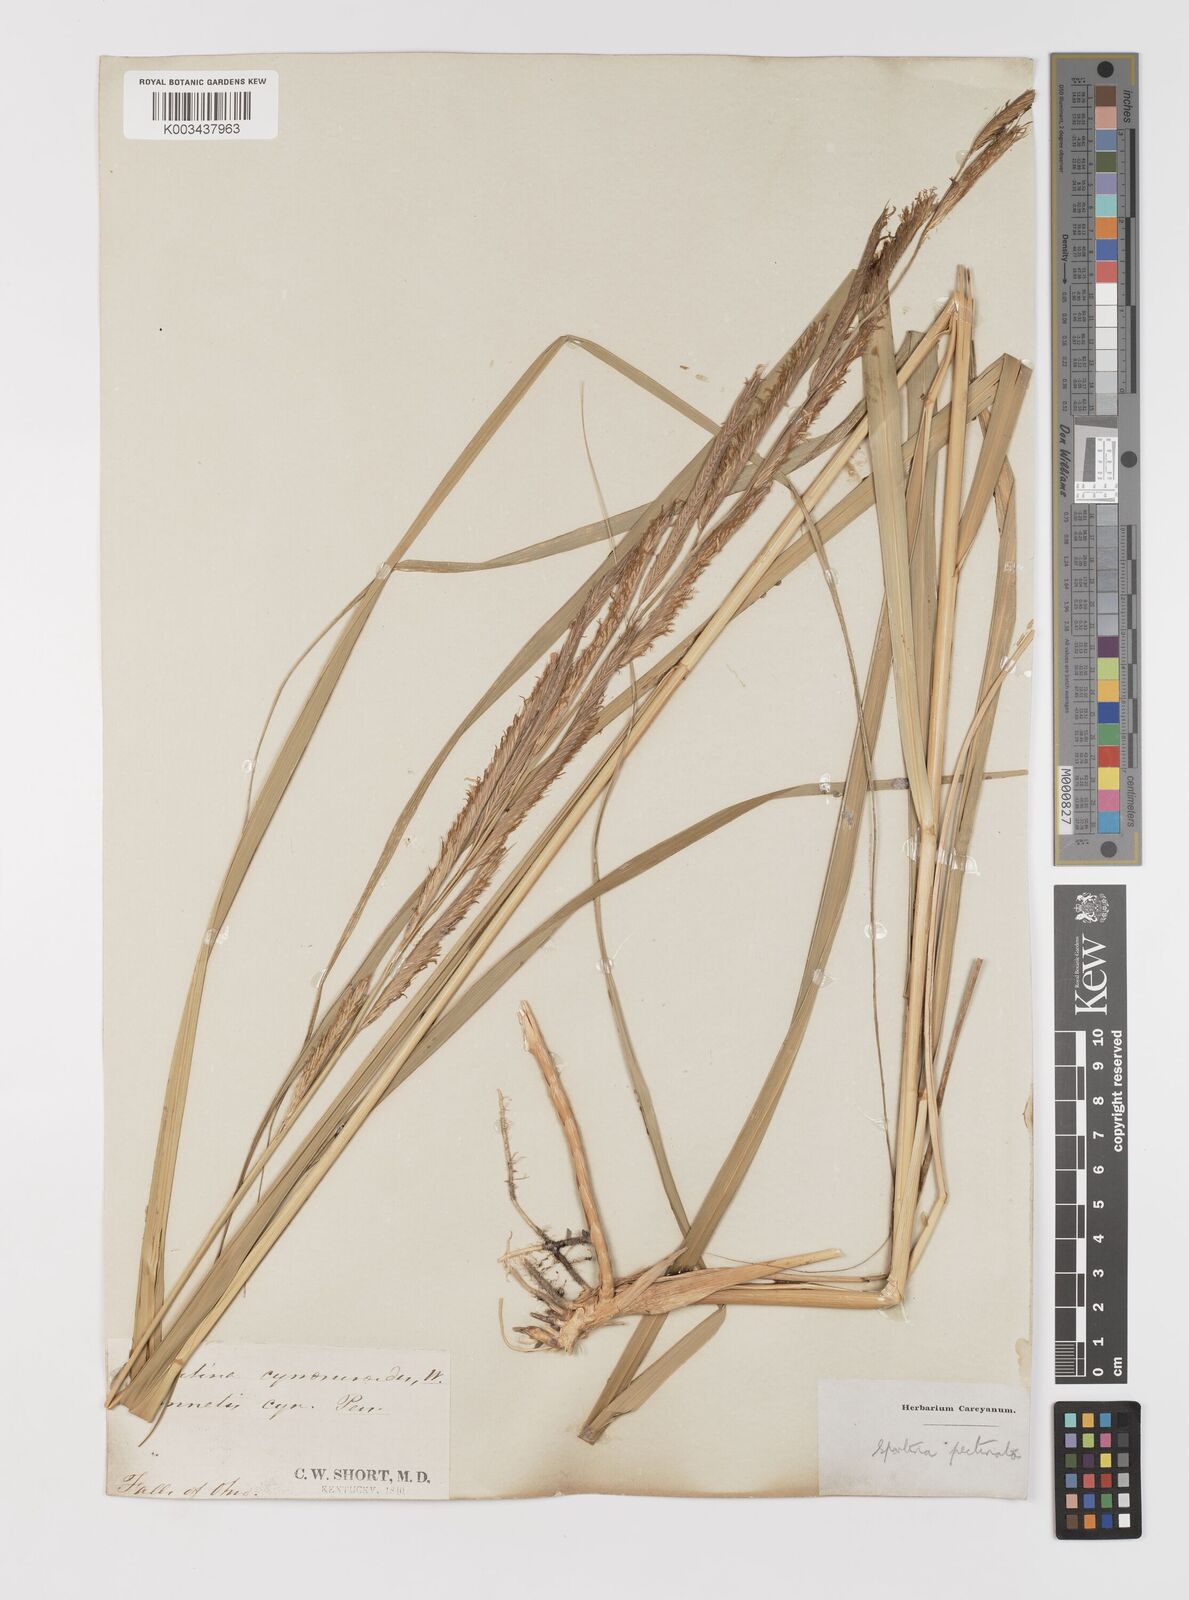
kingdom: Plantae
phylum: Tracheophyta
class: Liliopsida
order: Poales
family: Poaceae
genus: Sporobolus
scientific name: Sporobolus michauxianus
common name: Freshwater cordgrass
